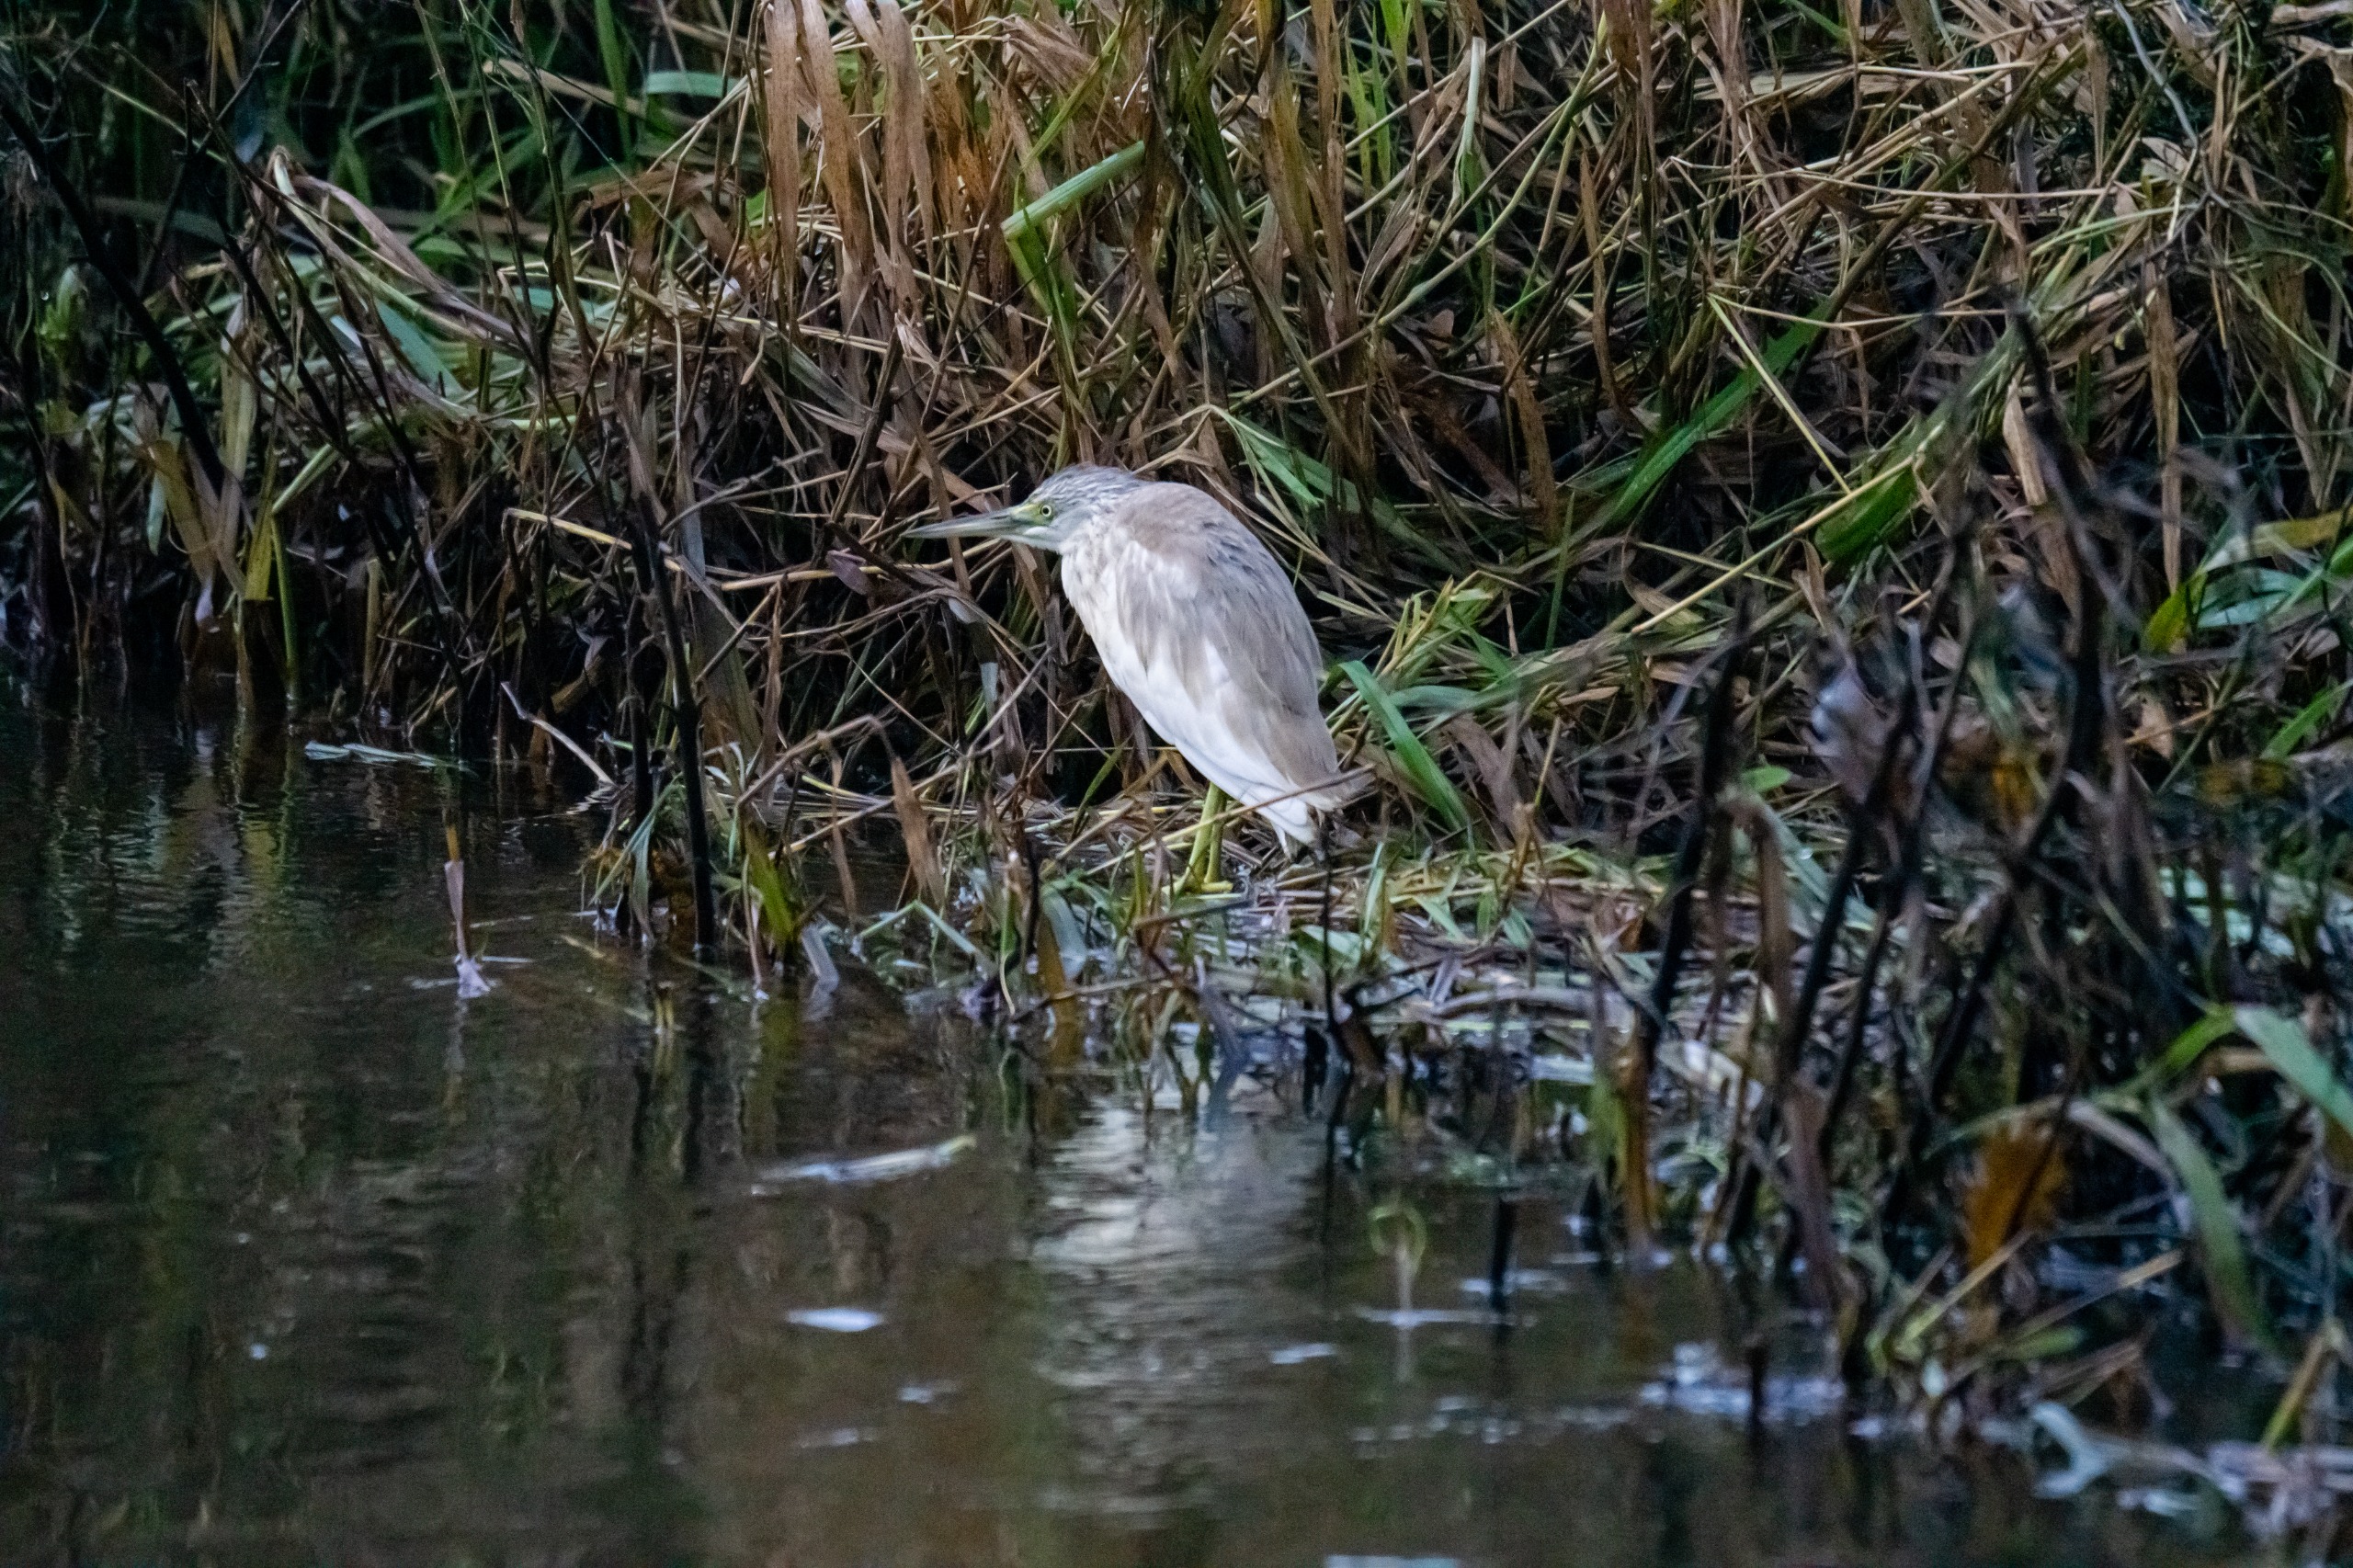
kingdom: Animalia
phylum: Chordata
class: Aves
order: Pelecaniformes
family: Ardeidae
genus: Ardeola
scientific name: Ardeola ralloides
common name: Tophejre
